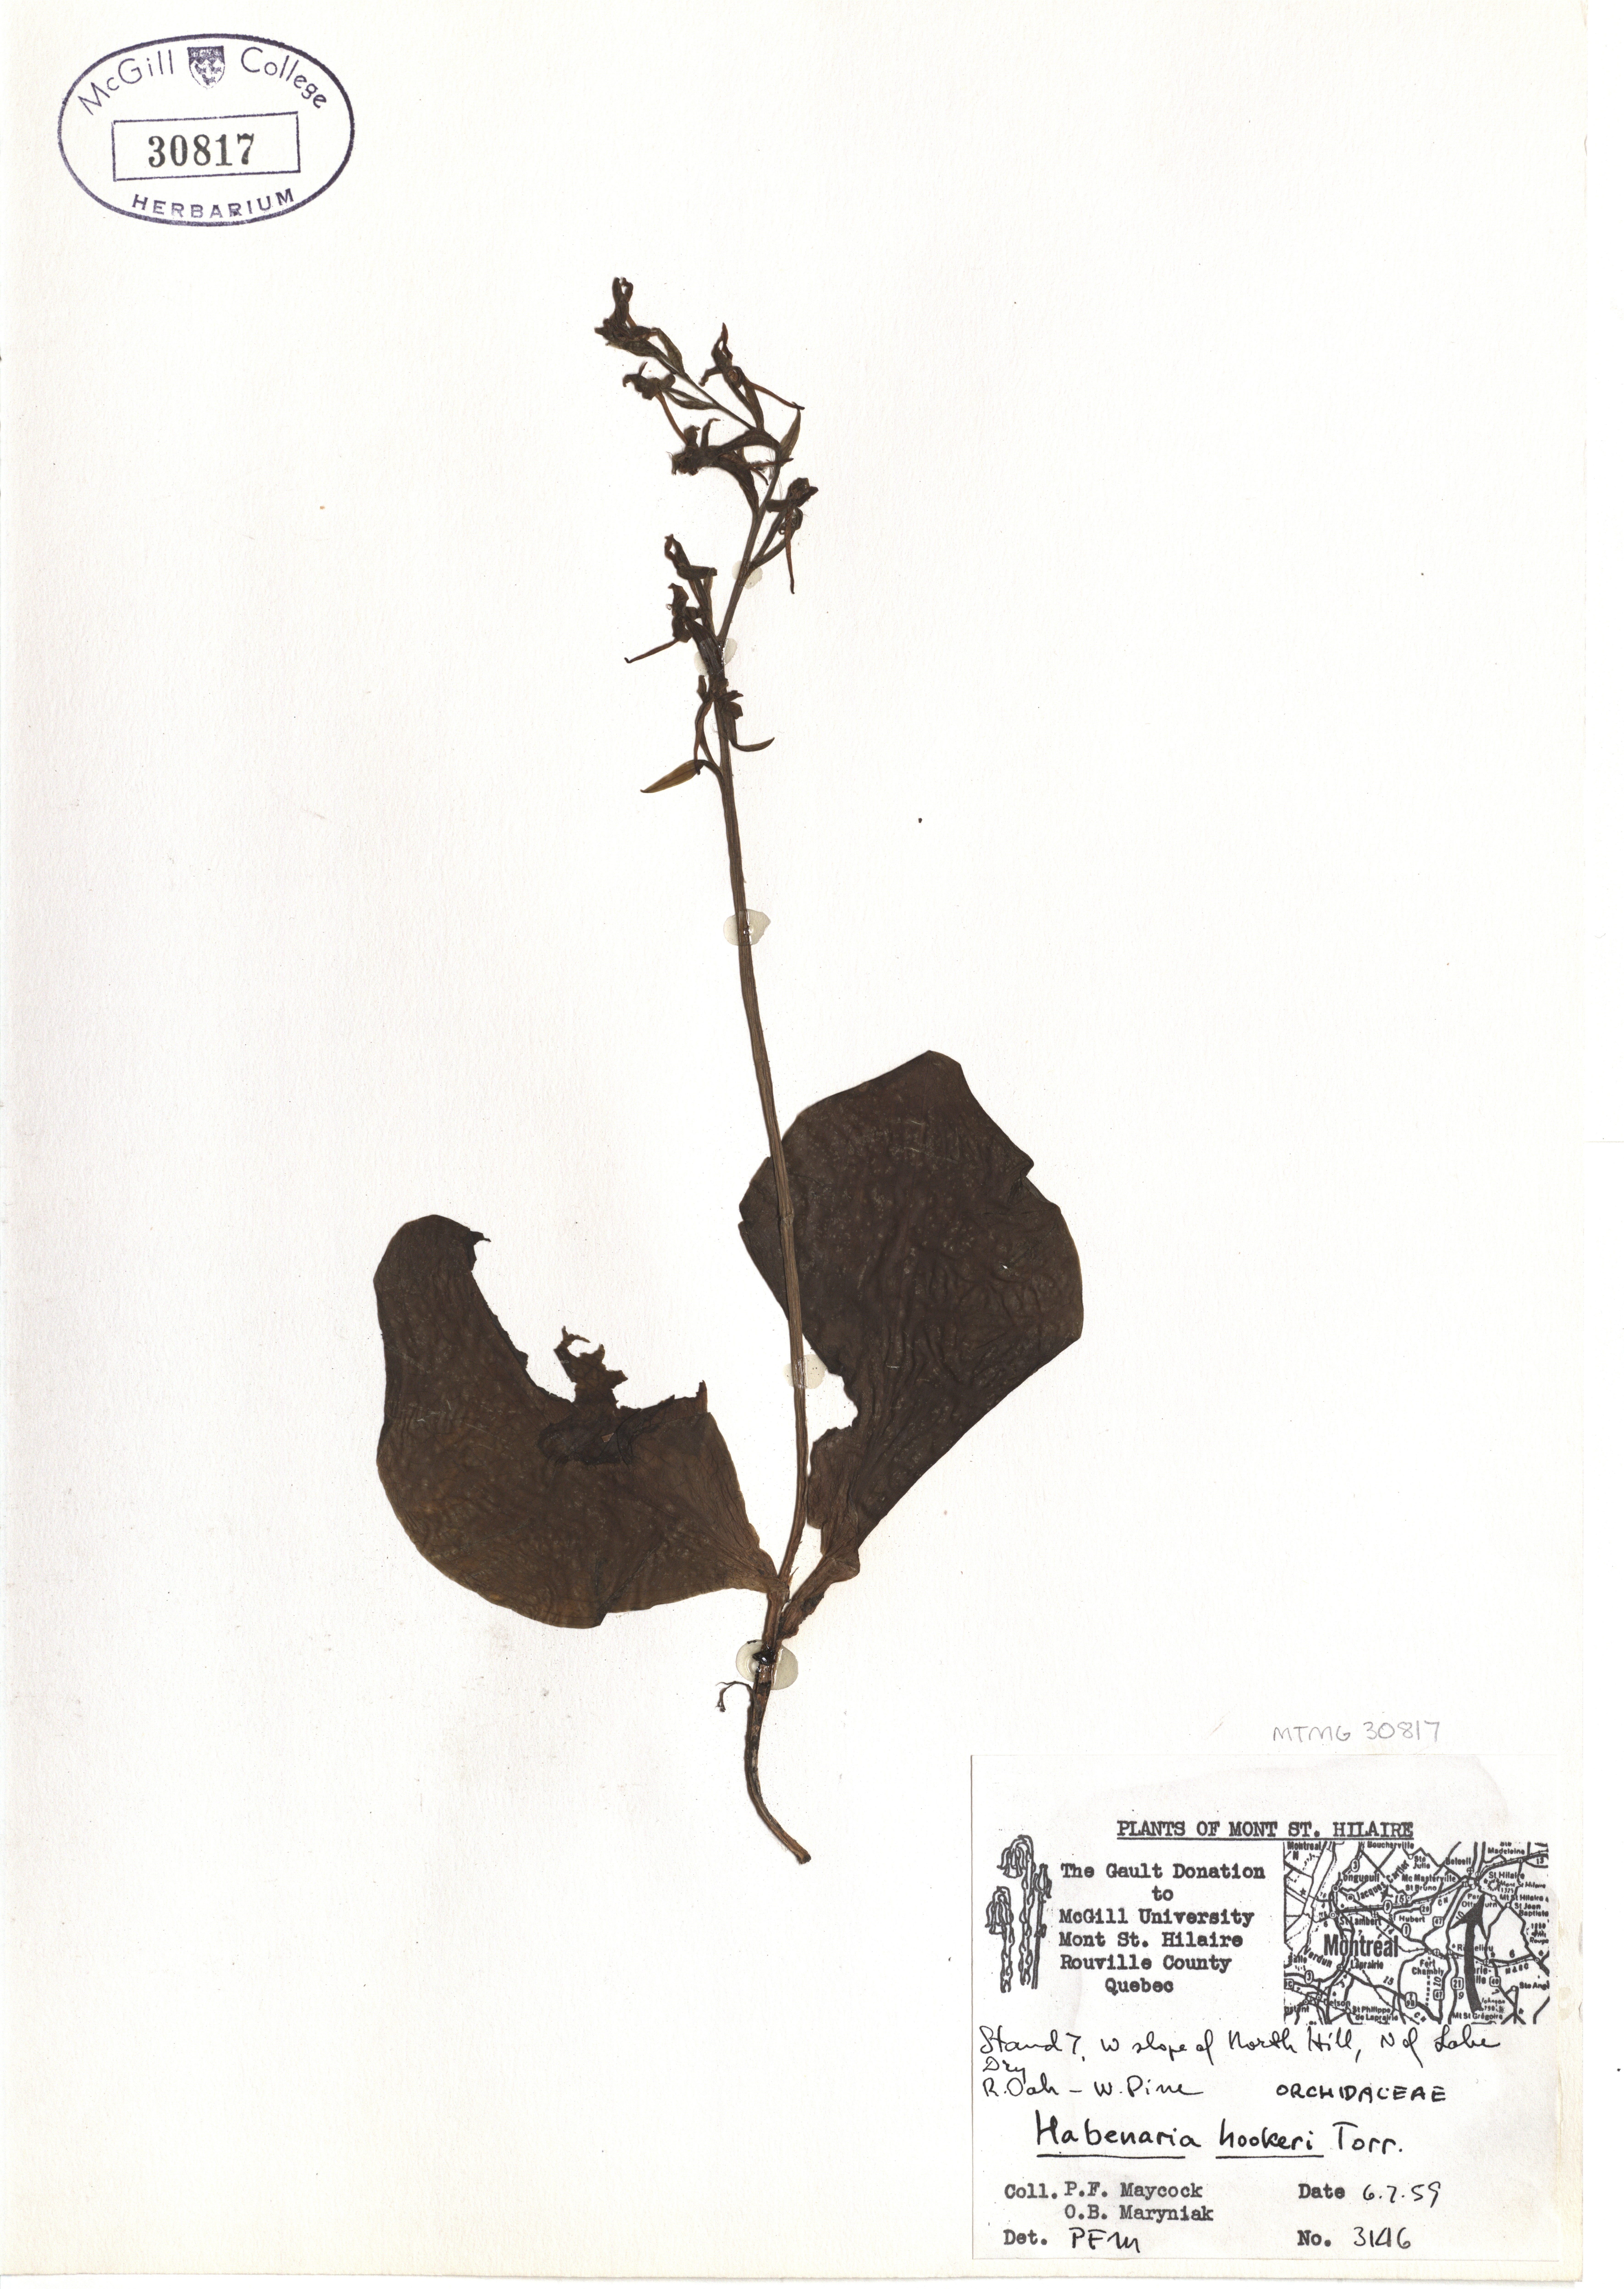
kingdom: Plantae
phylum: Tracheophyta
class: Liliopsida
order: Asparagales
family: Orchidaceae
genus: Platanthera
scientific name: Platanthera hookeri
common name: Hooker's orchid
